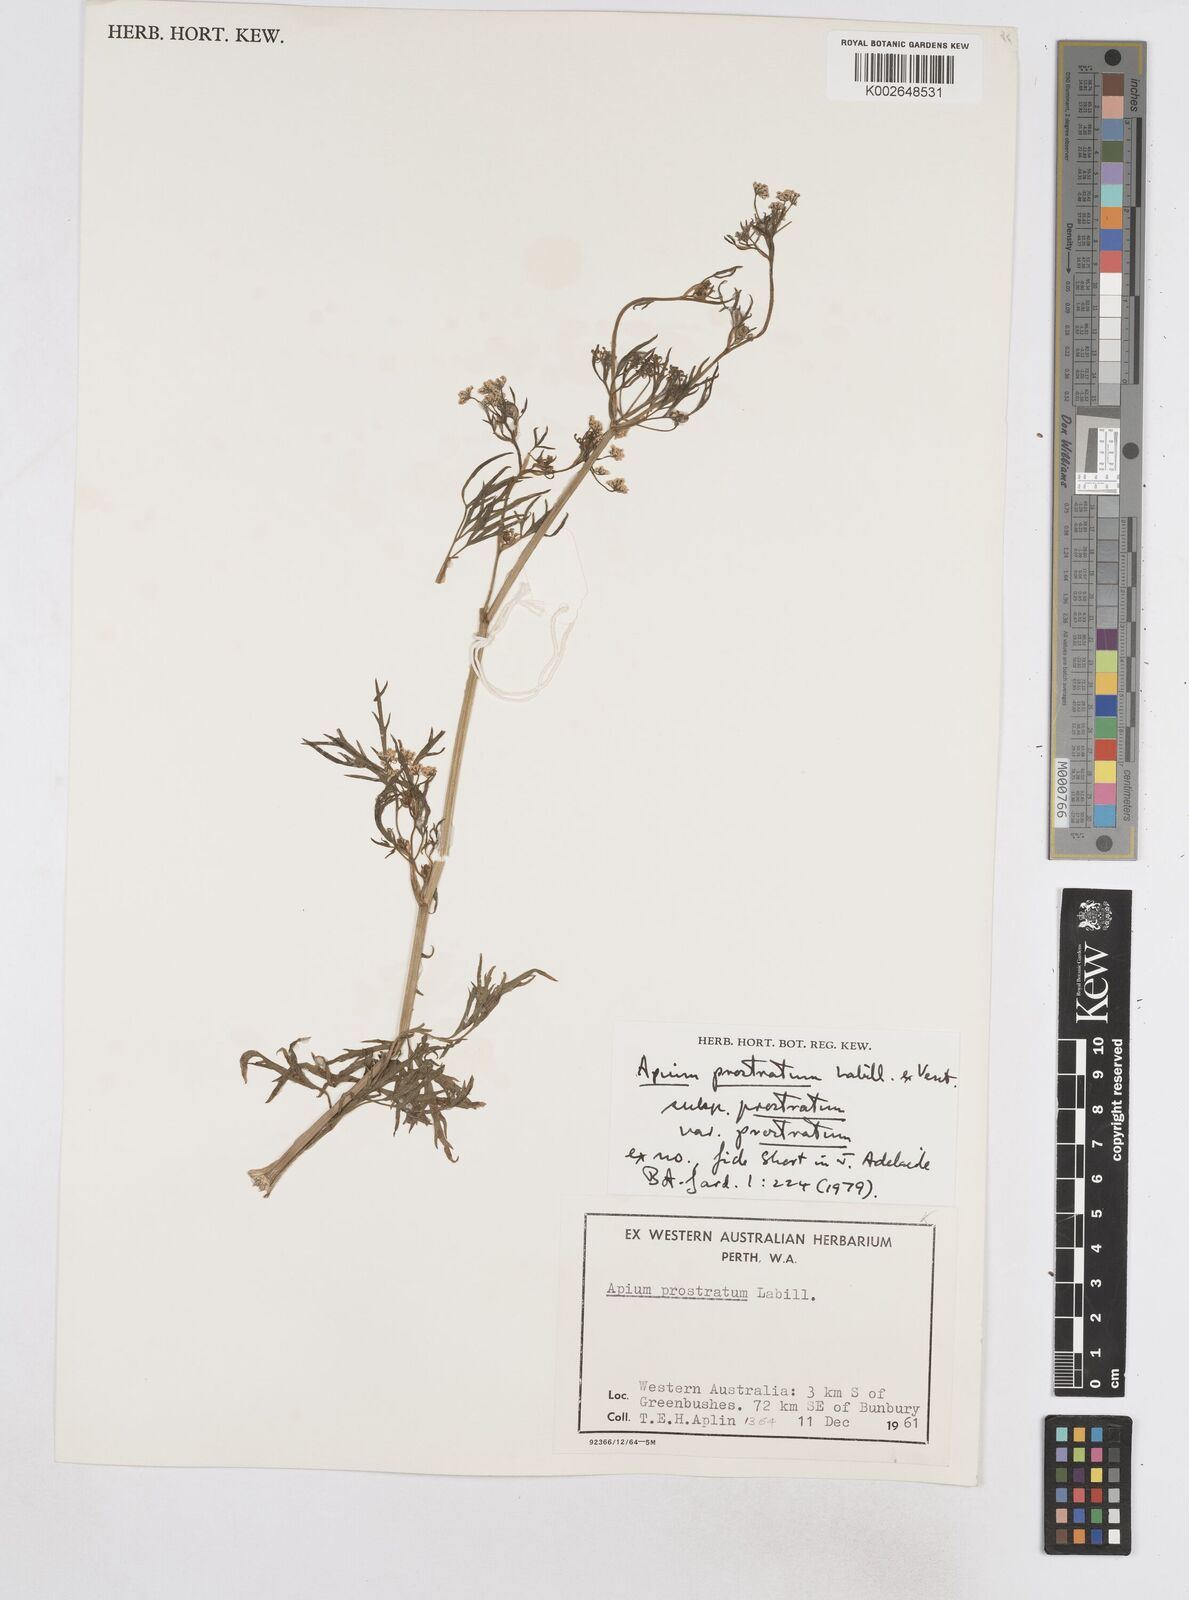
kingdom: Plantae
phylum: Tracheophyta
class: Magnoliopsida
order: Apiales
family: Apiaceae
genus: Apium
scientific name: Apium prostratum
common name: Prostrate marshwort
